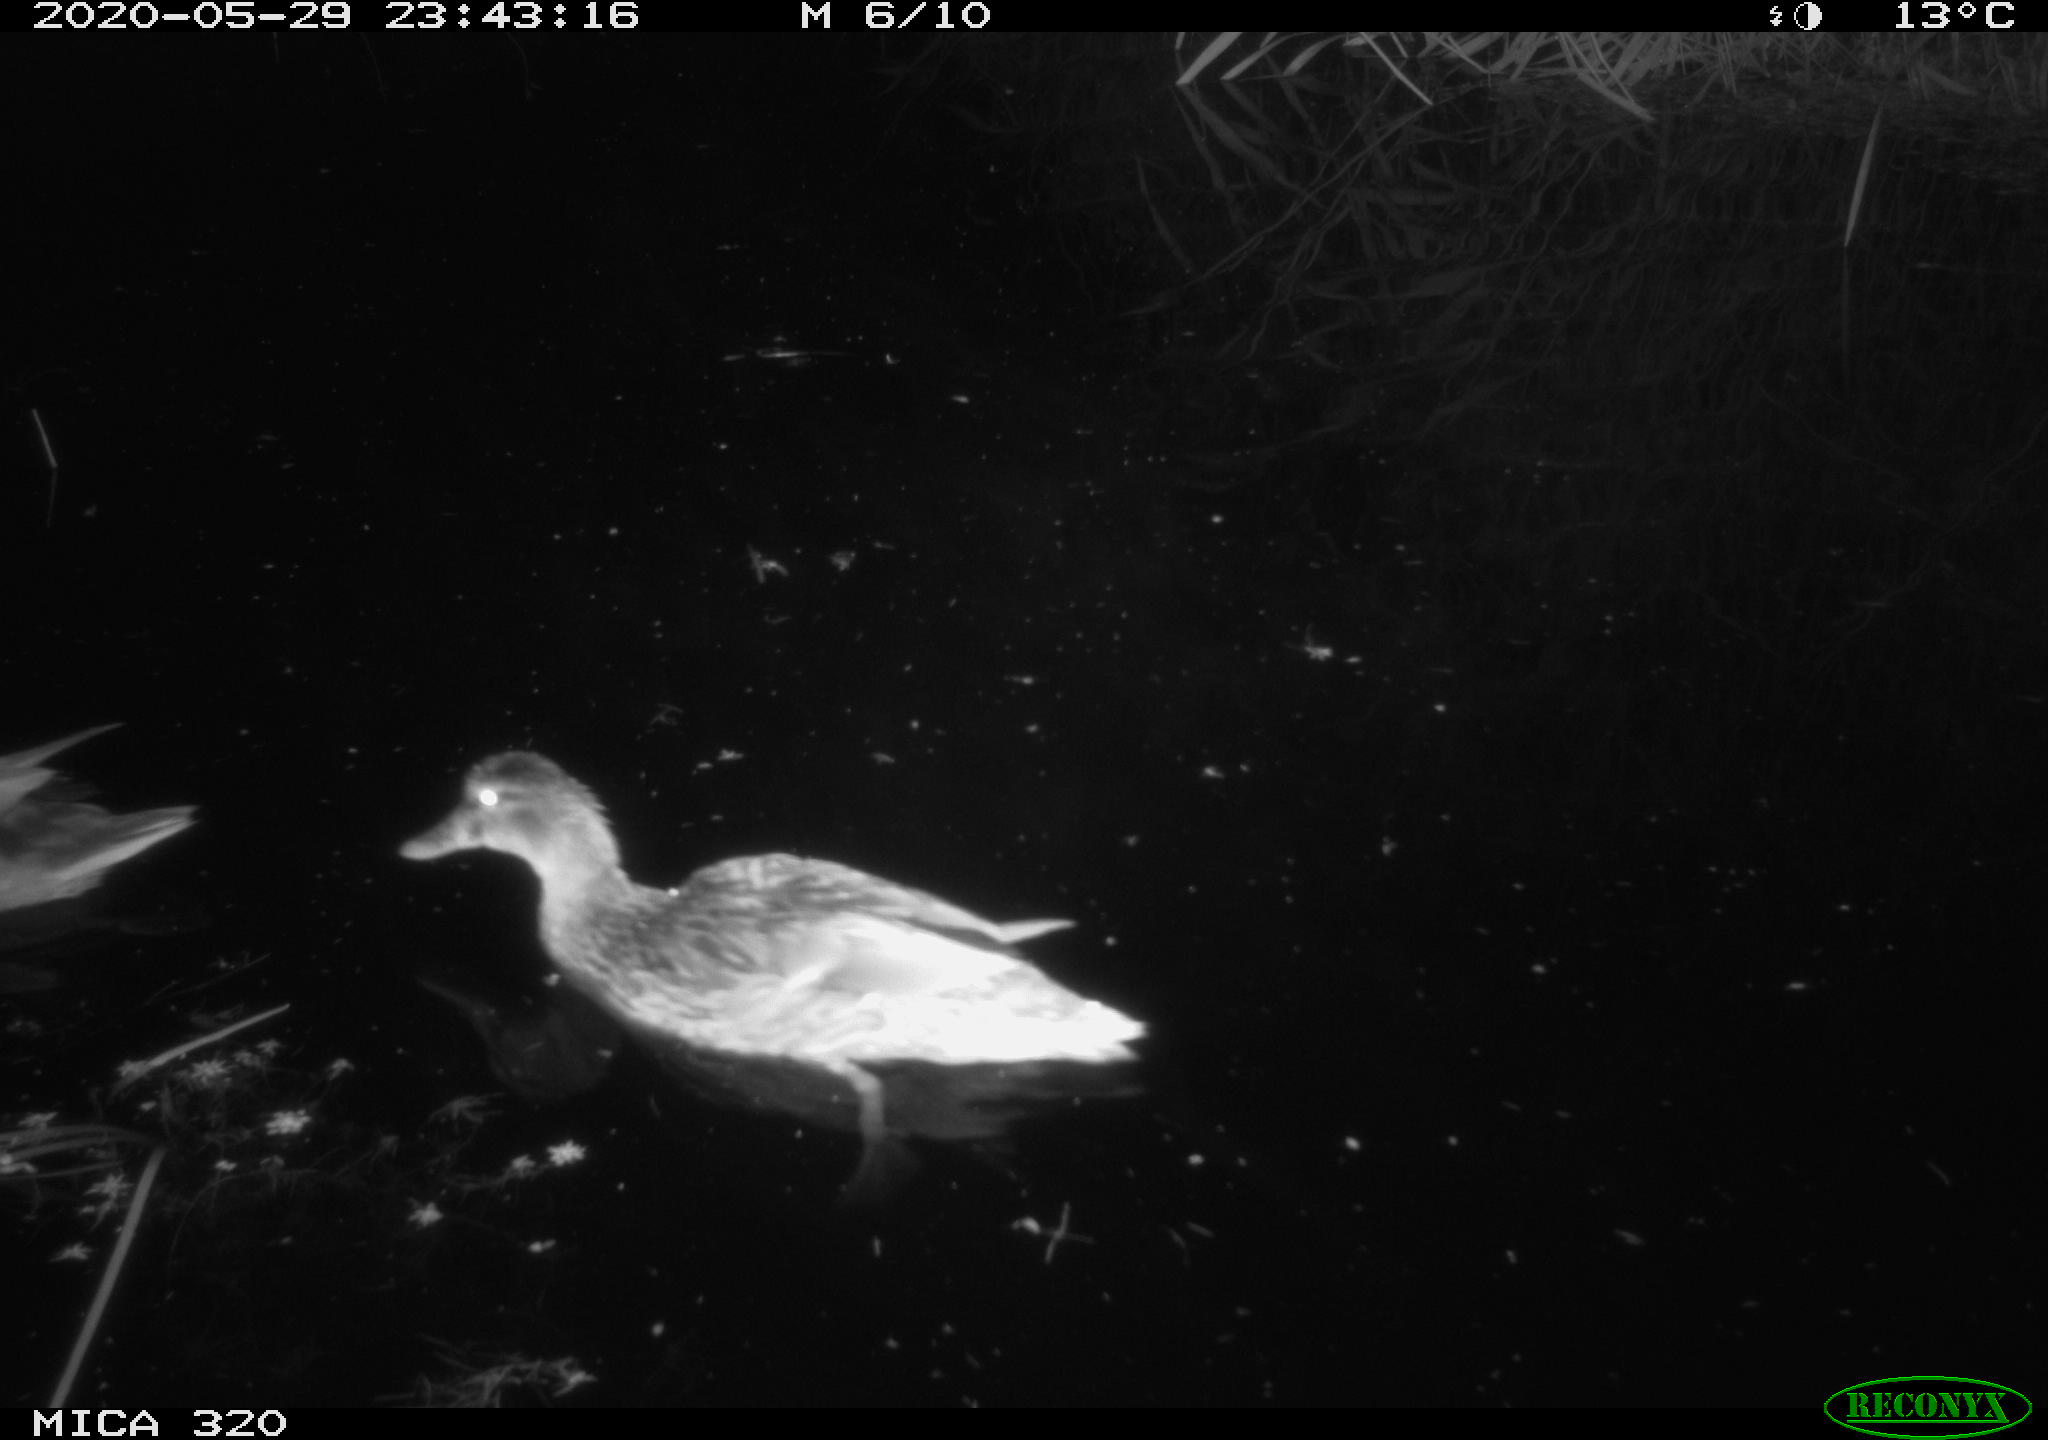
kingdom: Animalia
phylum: Chordata
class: Aves
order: Anseriformes
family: Anatidae
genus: Anas
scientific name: Anas platyrhynchos
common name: Mallard
